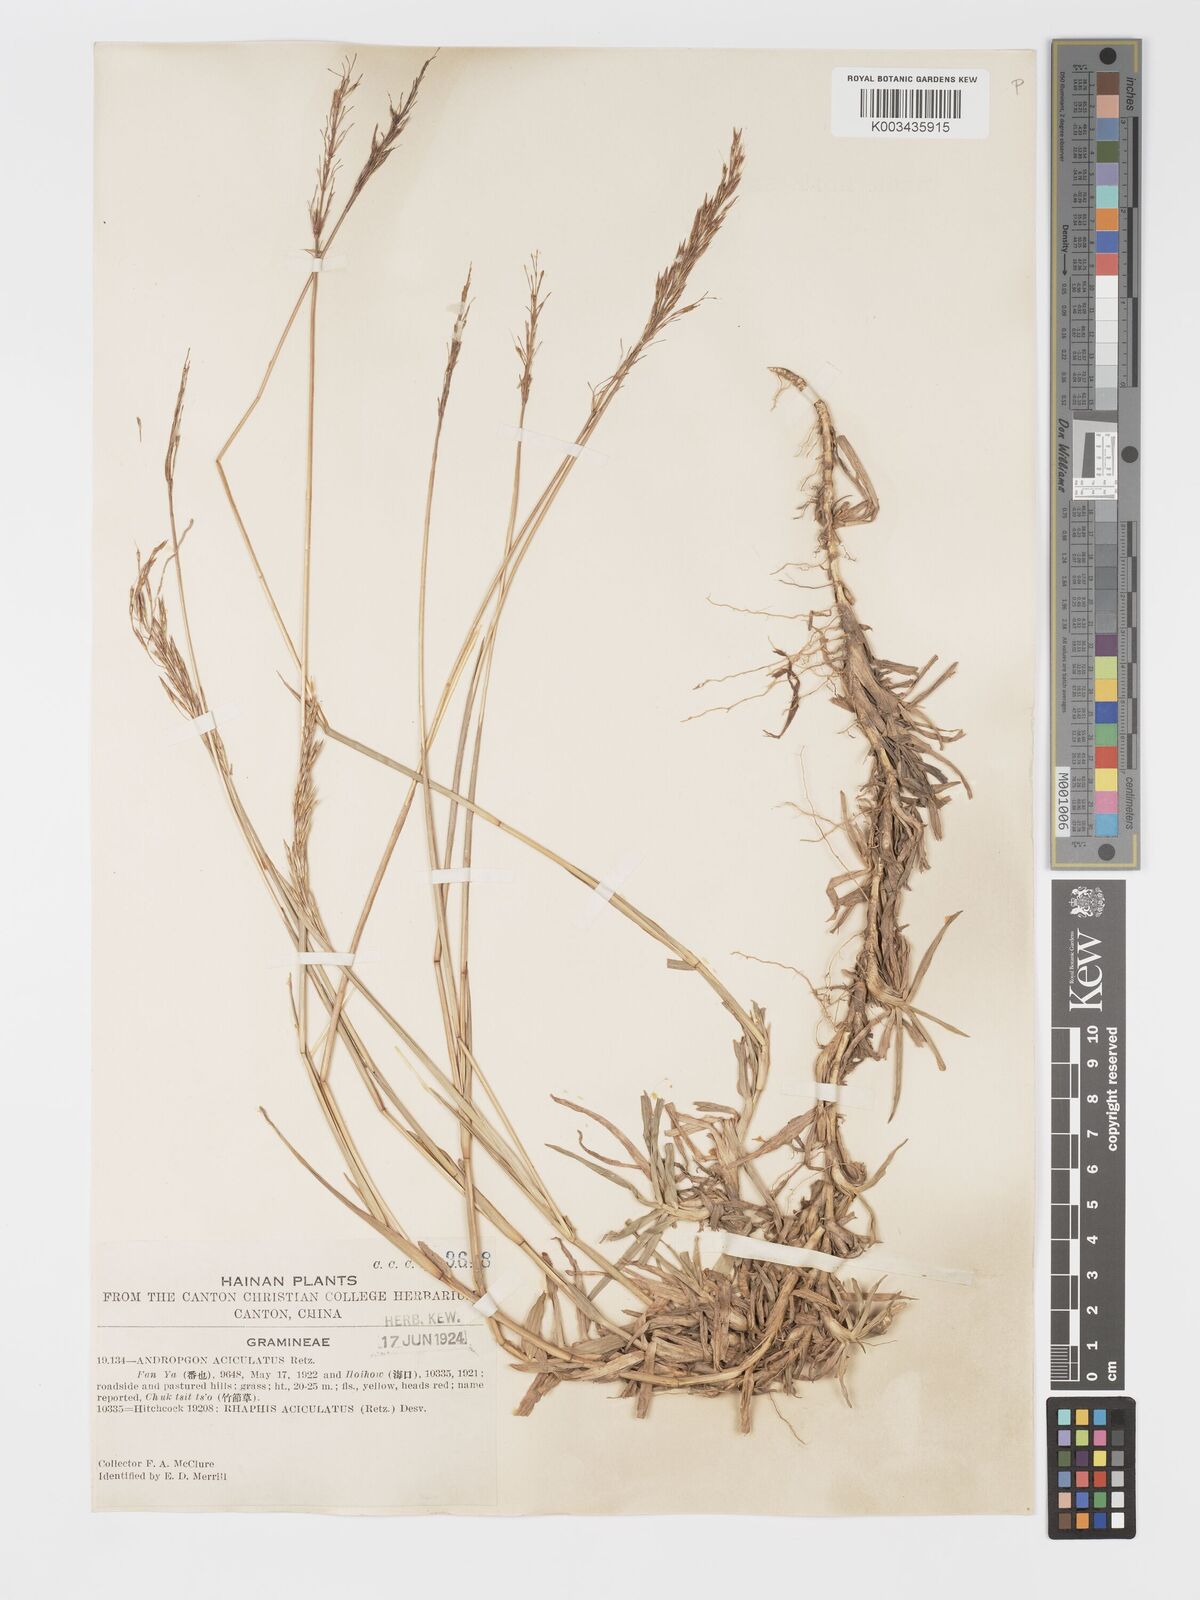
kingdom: Plantae
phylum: Tracheophyta
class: Liliopsida
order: Poales
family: Poaceae
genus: Chrysopogon
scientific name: Chrysopogon aciculatus
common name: Pilipiliula
